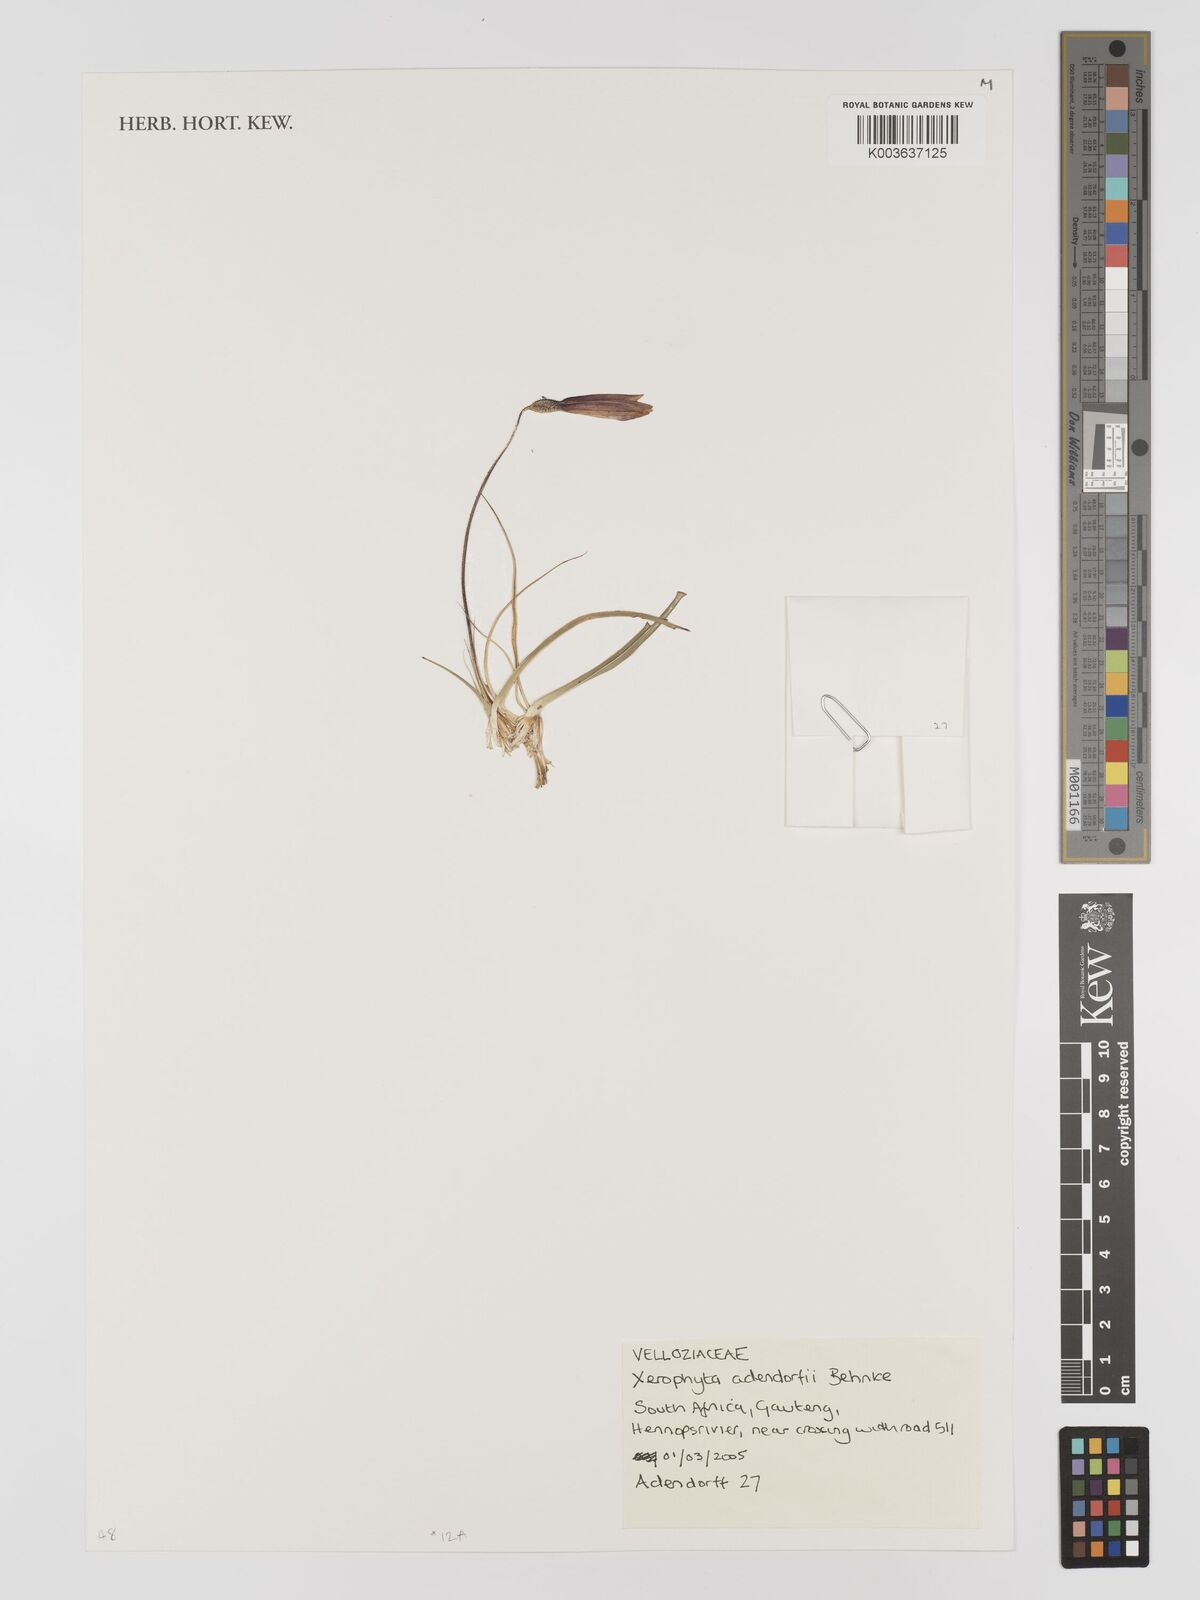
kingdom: Plantae
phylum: Tracheophyta
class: Liliopsida
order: Pandanales
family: Velloziaceae
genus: Xerophyta
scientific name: Xerophyta adendorffii
